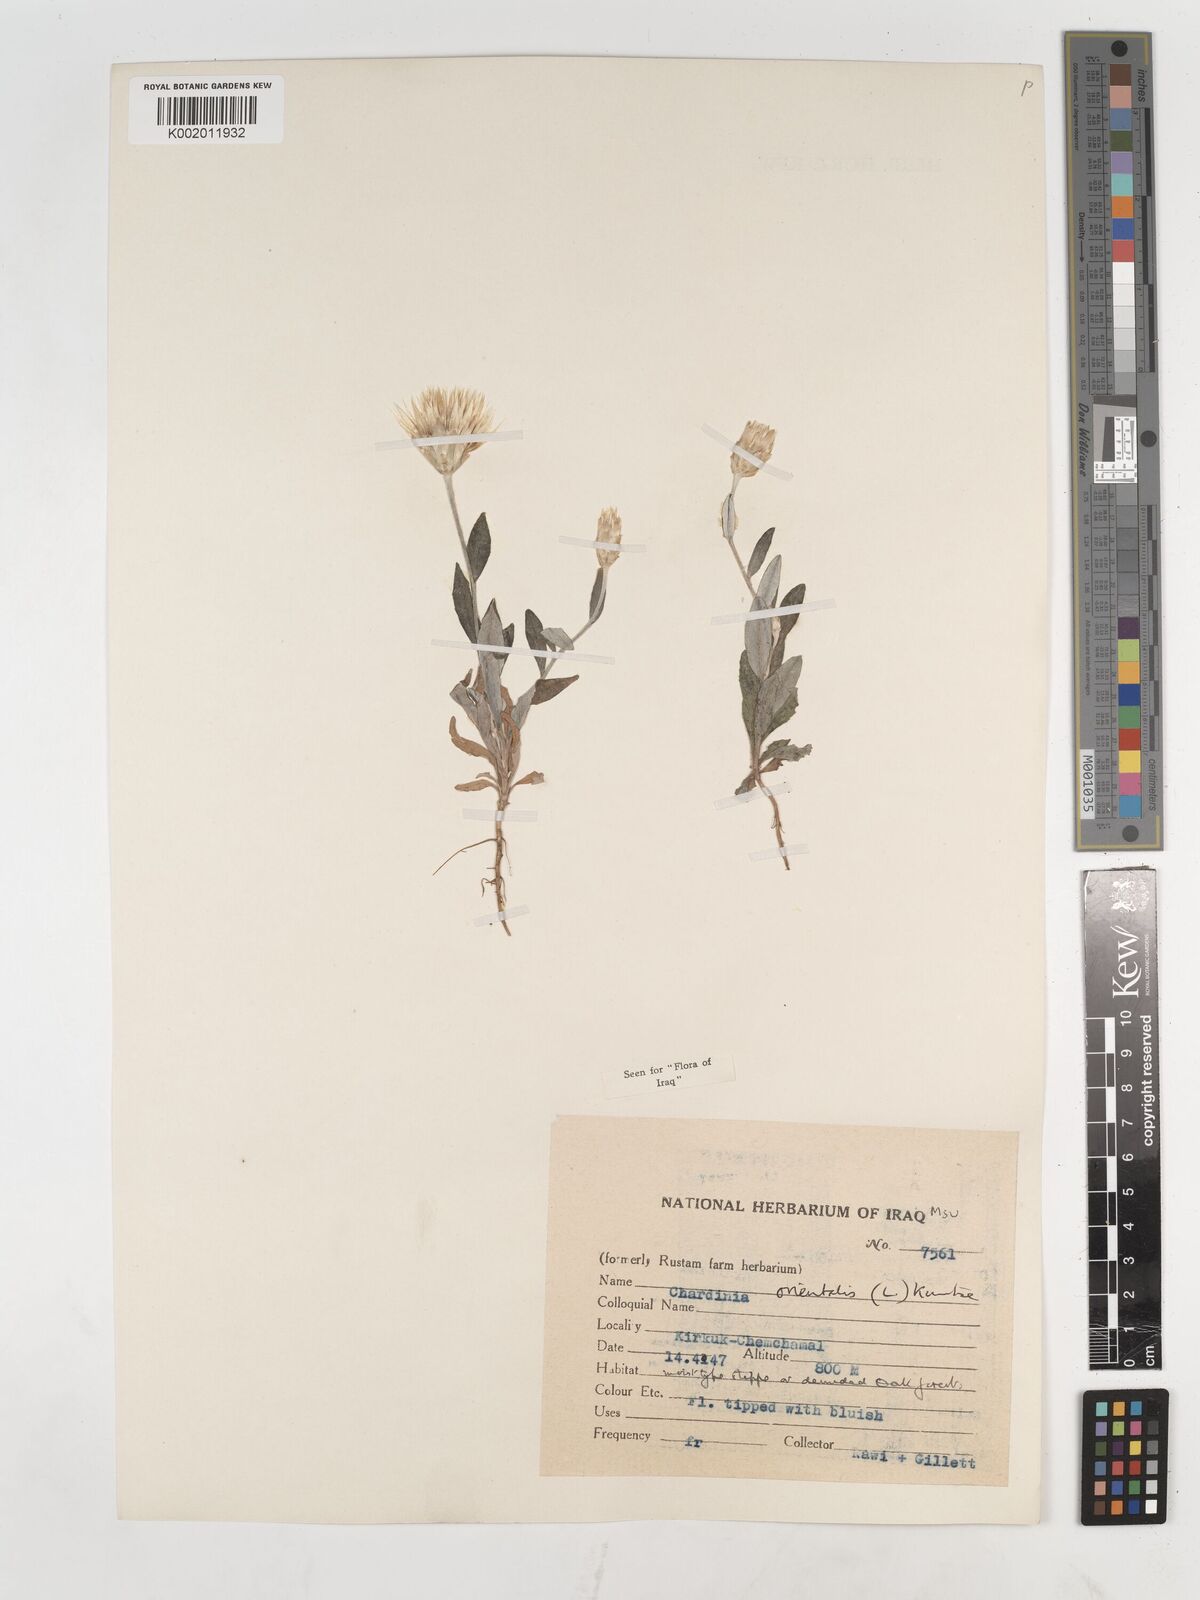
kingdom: Plantae
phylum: Tracheophyta
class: Magnoliopsida
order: Asterales
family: Asteraceae
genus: Chardinia
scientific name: Chardinia orientalis
